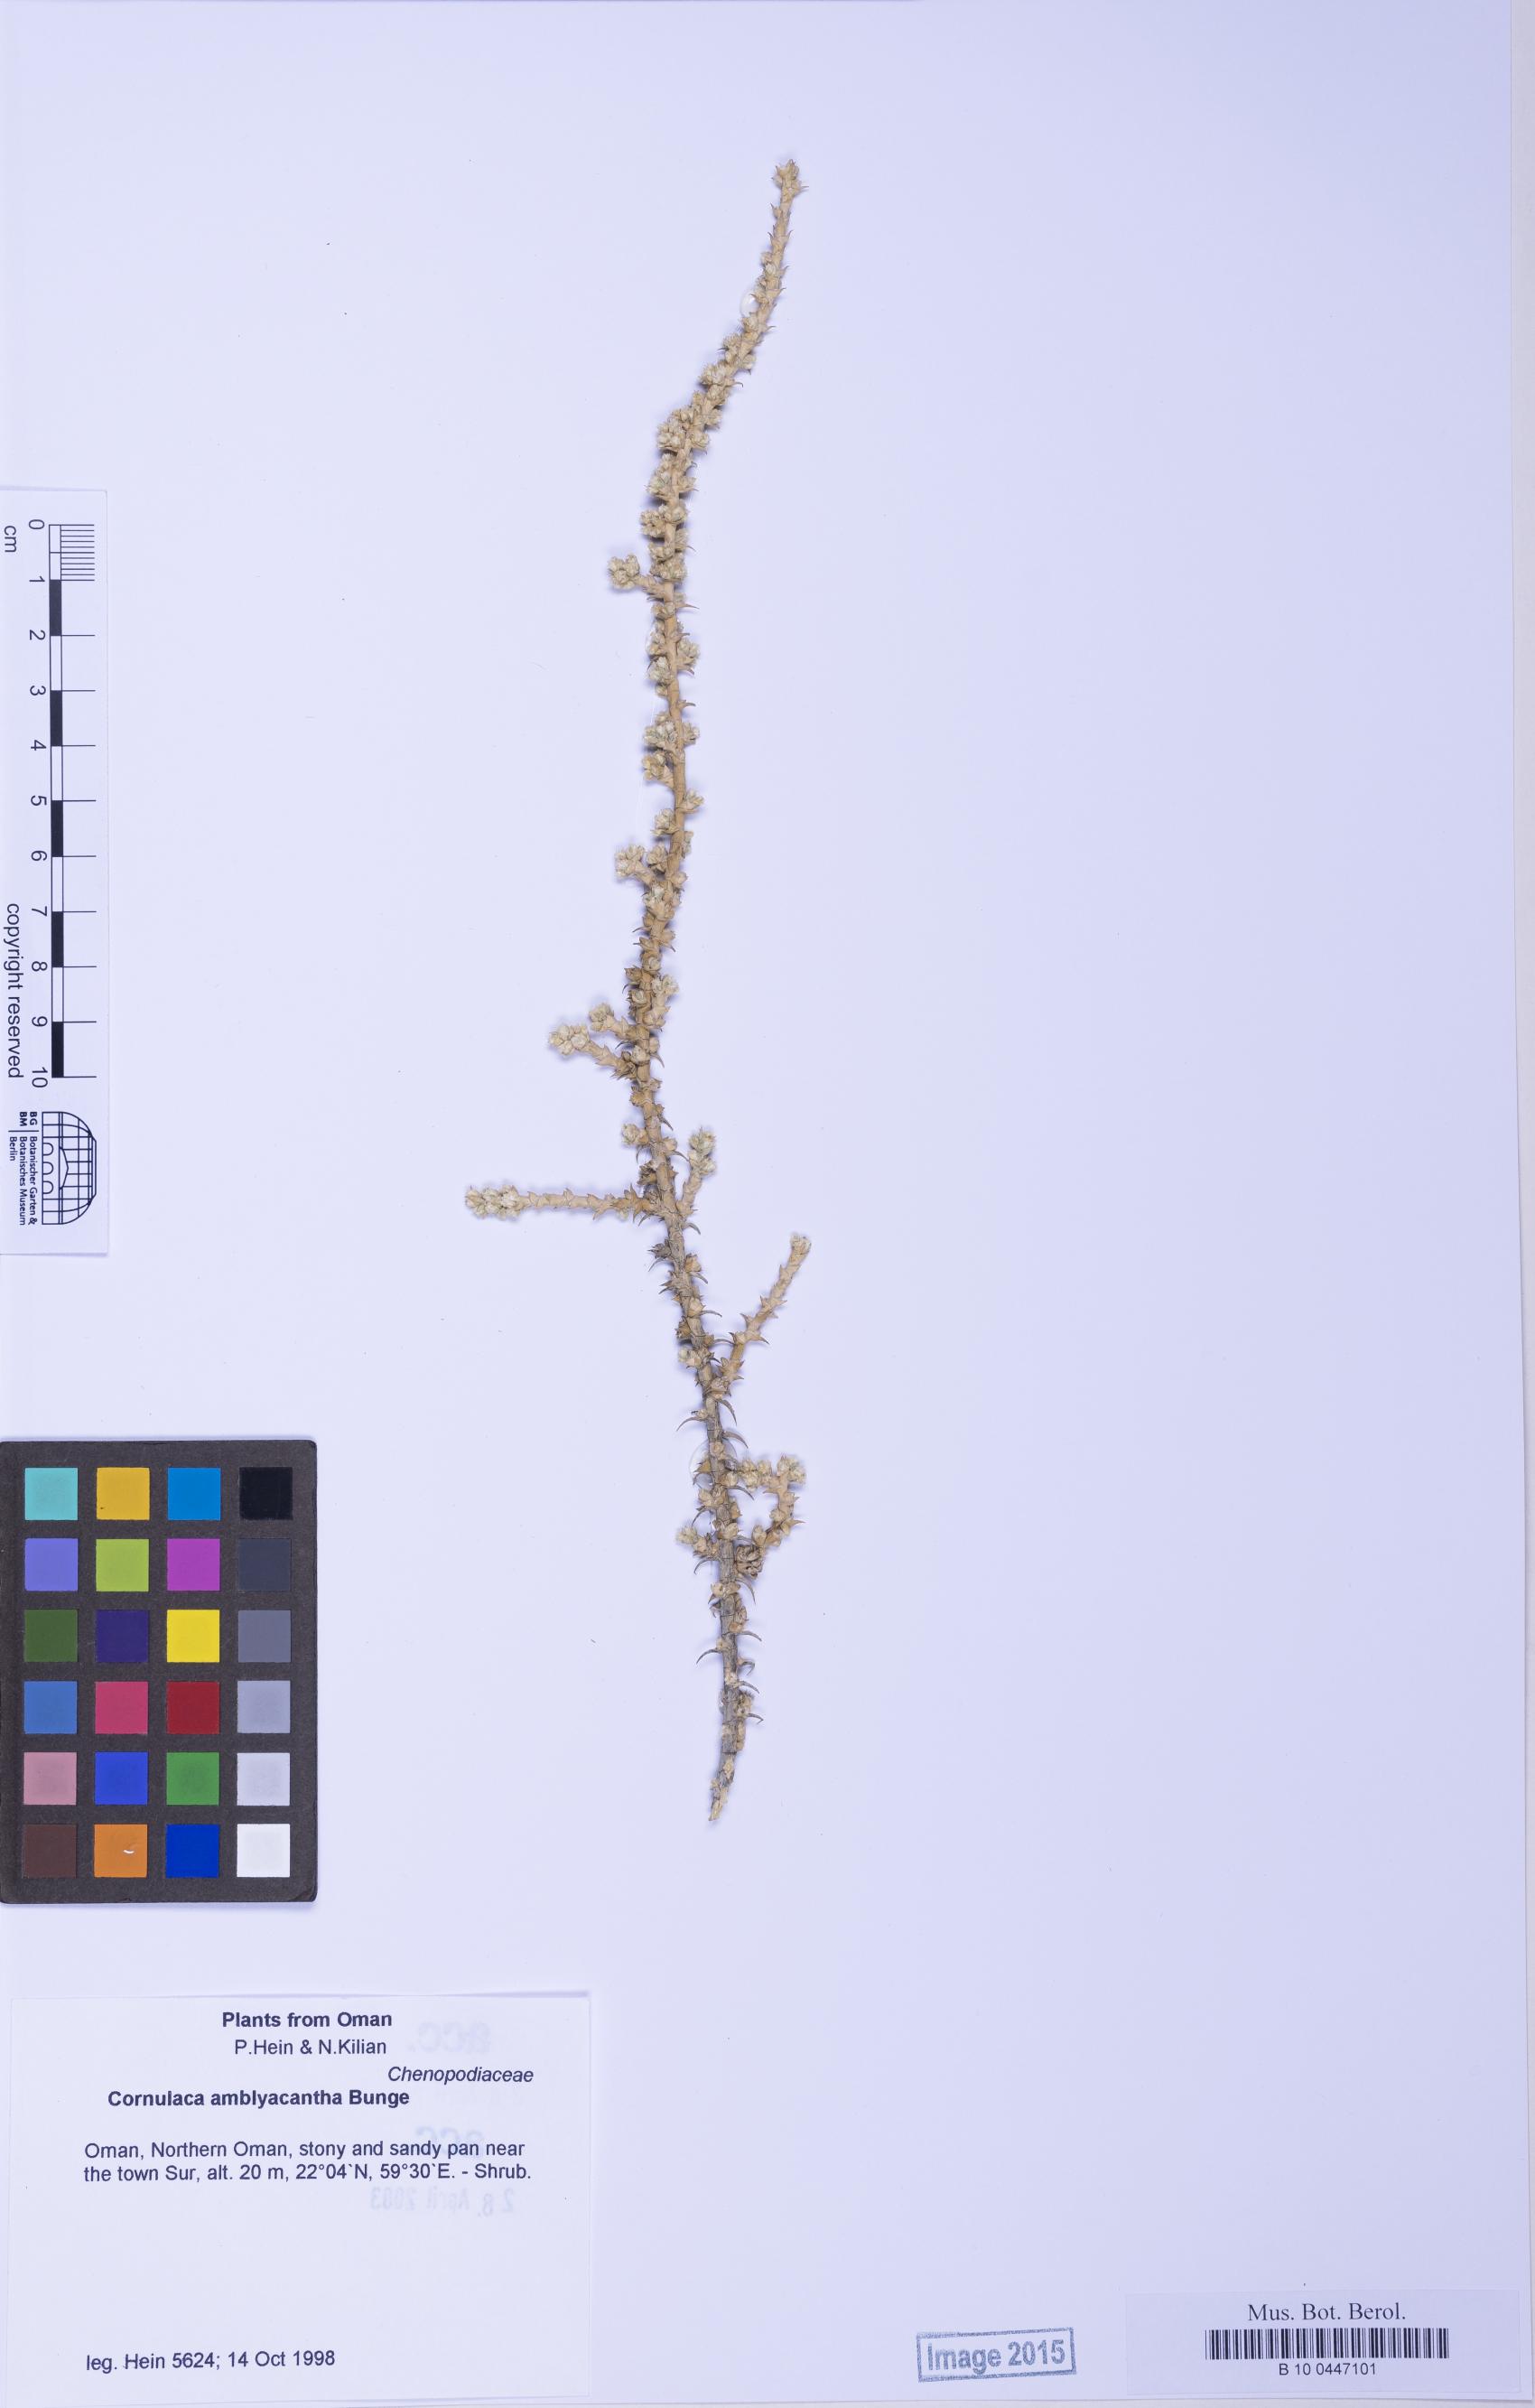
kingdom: Plantae
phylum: Tracheophyta
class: Magnoliopsida
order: Caryophyllales
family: Amaranthaceae
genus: Cornulaca
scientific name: Cornulaca monacantha
